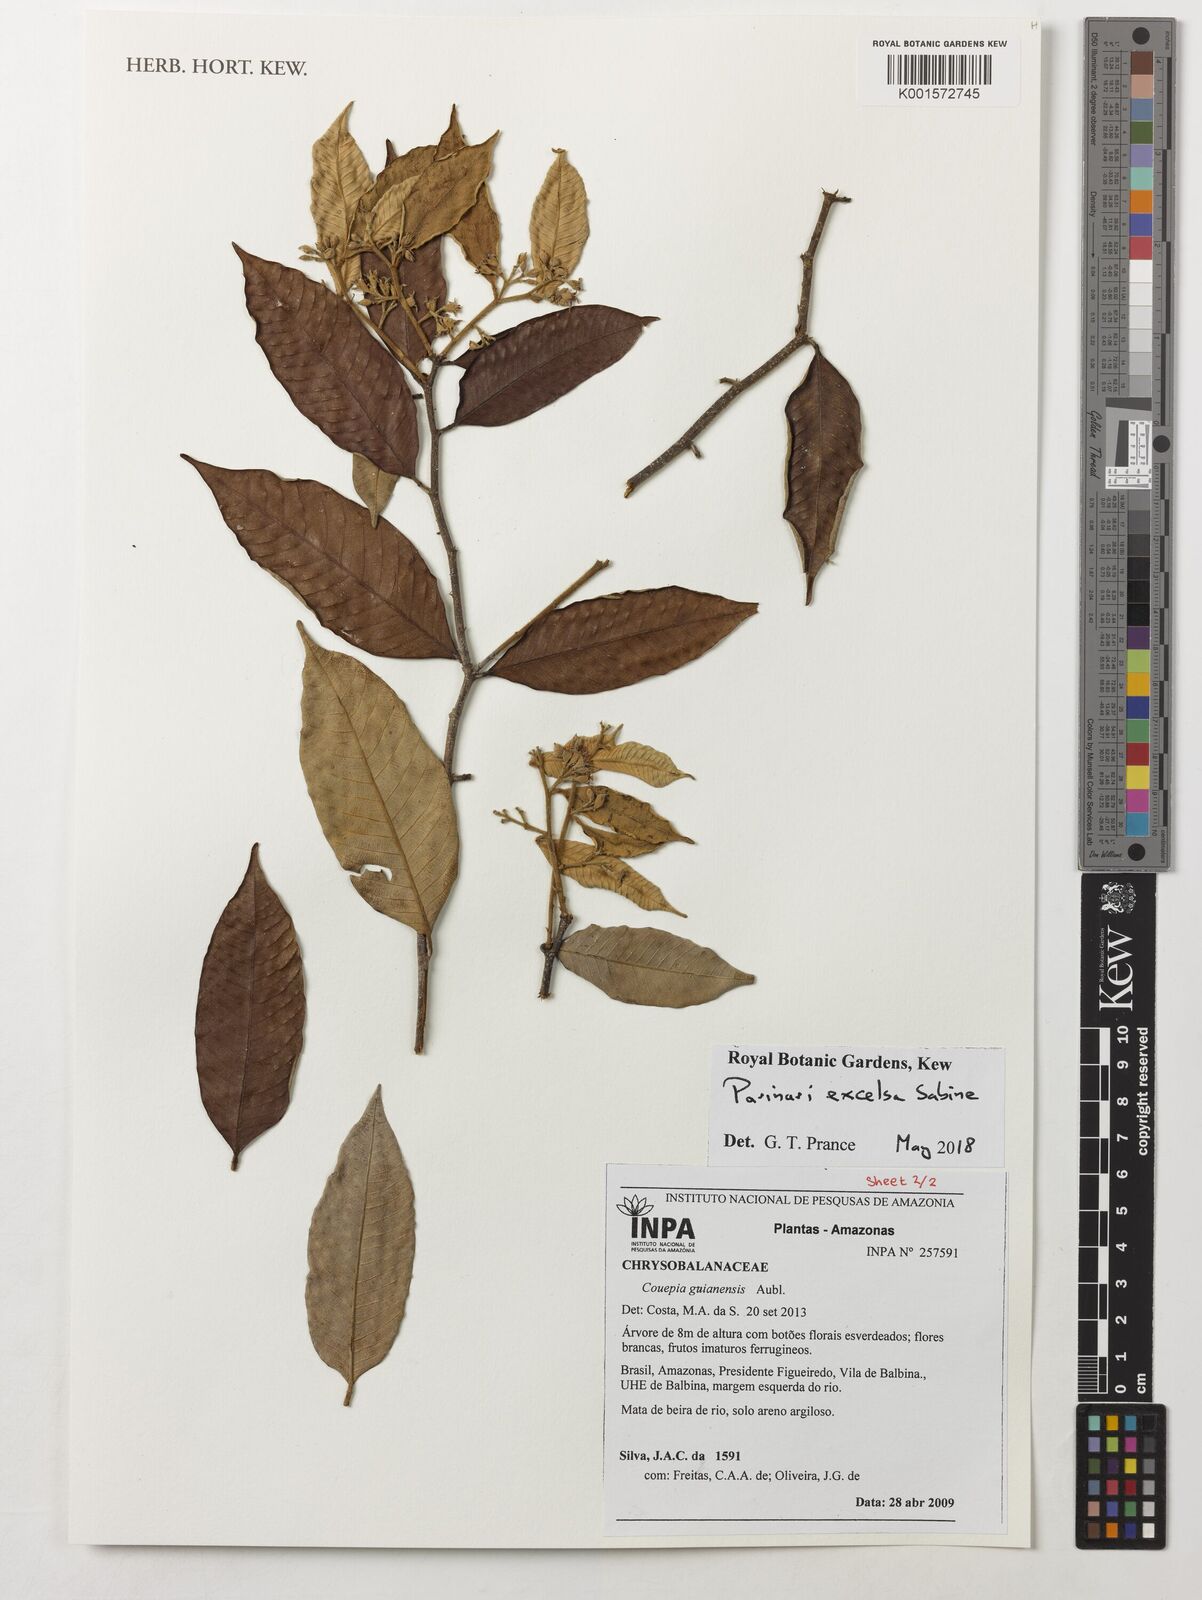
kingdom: Plantae
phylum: Tracheophyta
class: Magnoliopsida
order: Malpighiales
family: Chrysobalanaceae
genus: Parinari
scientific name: Parinari excelsa
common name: Guinea-plum
